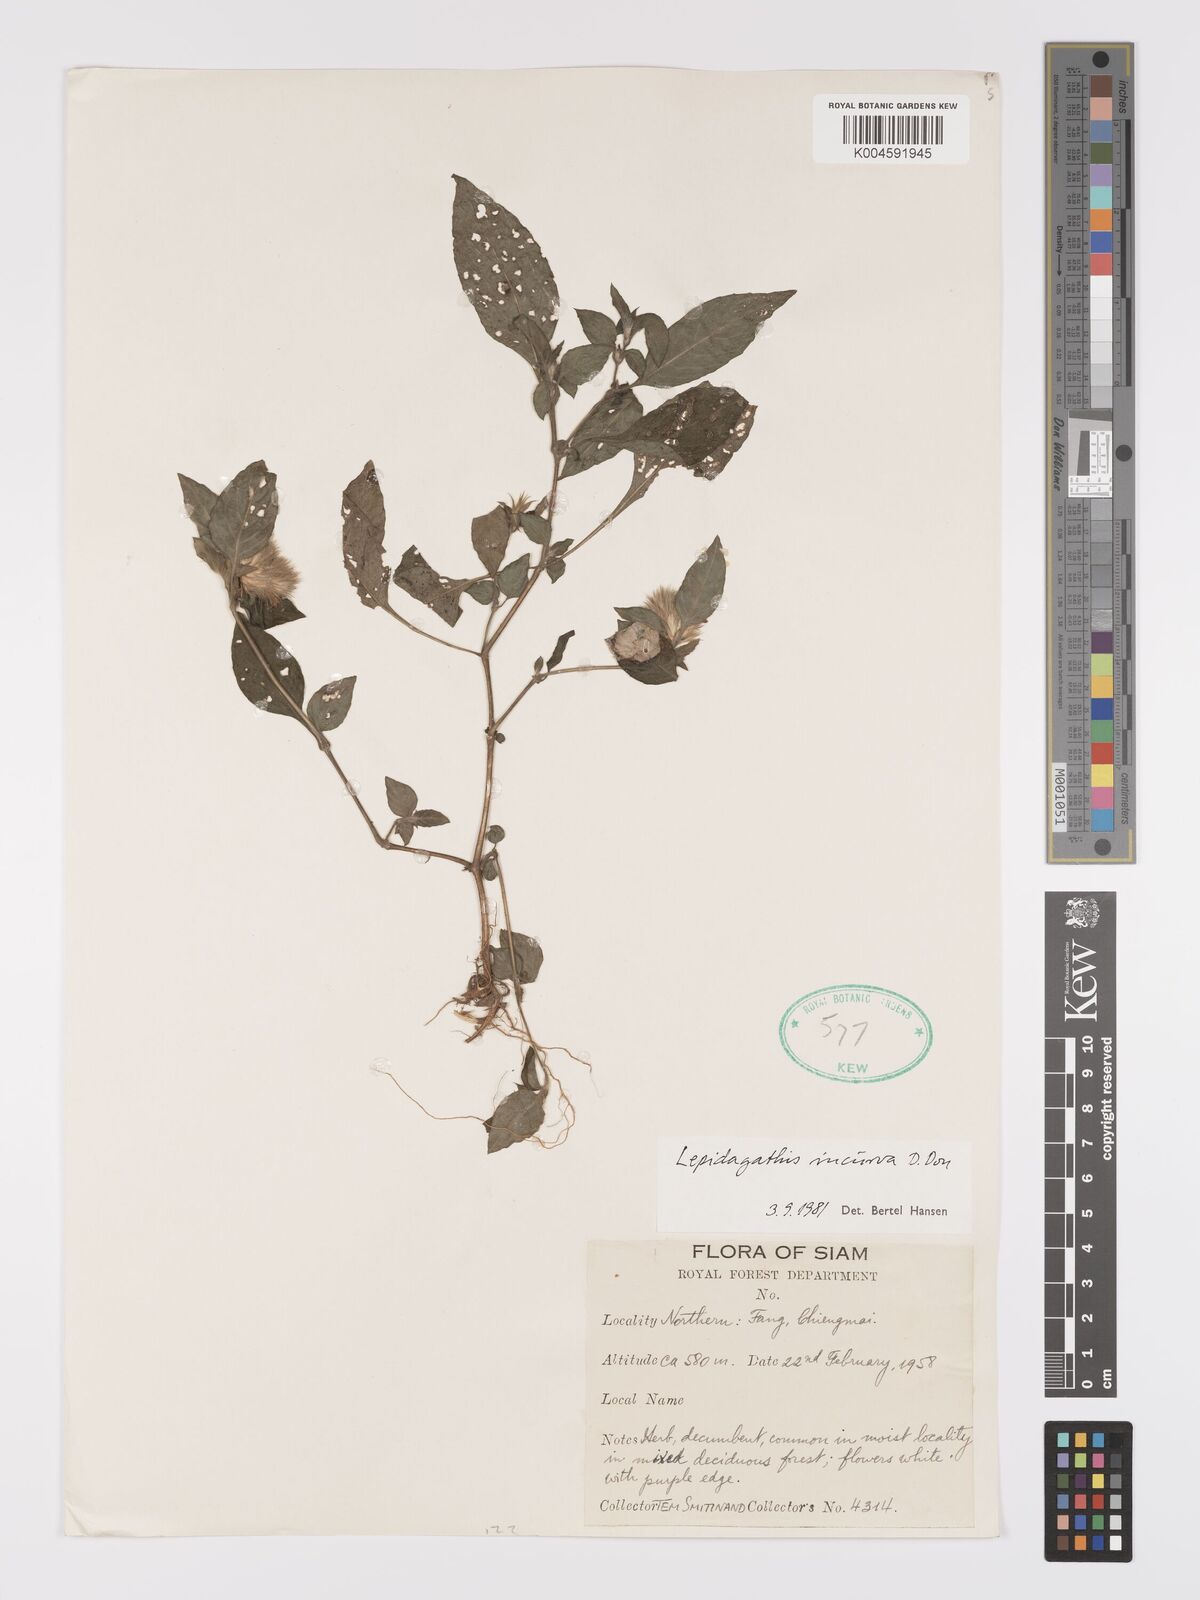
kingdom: Plantae
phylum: Tracheophyta
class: Magnoliopsida
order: Lamiales
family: Acanthaceae
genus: Lepidagathis
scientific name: Lepidagathis incurva
